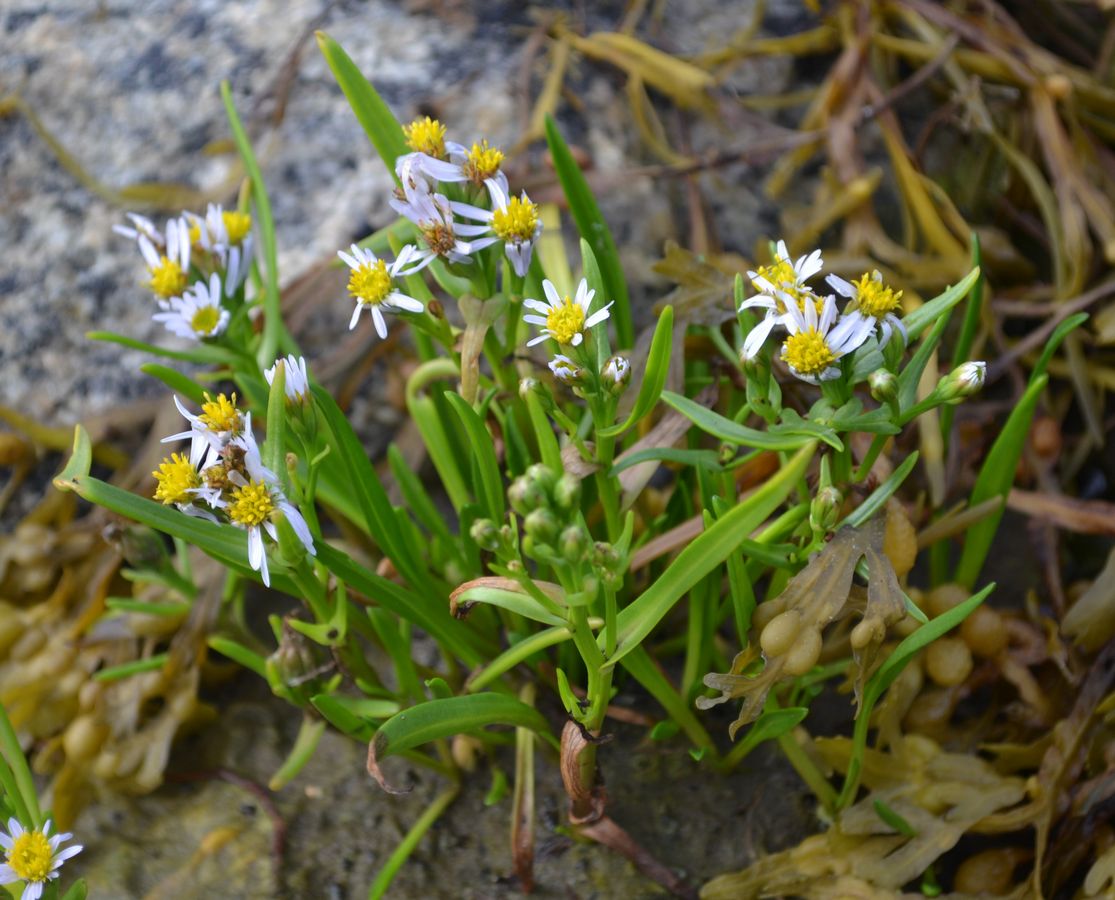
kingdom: Plantae
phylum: Tracheophyta
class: Magnoliopsida
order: Asterales
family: Asteraceae
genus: Tripolium
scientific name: Tripolium pannonicum
